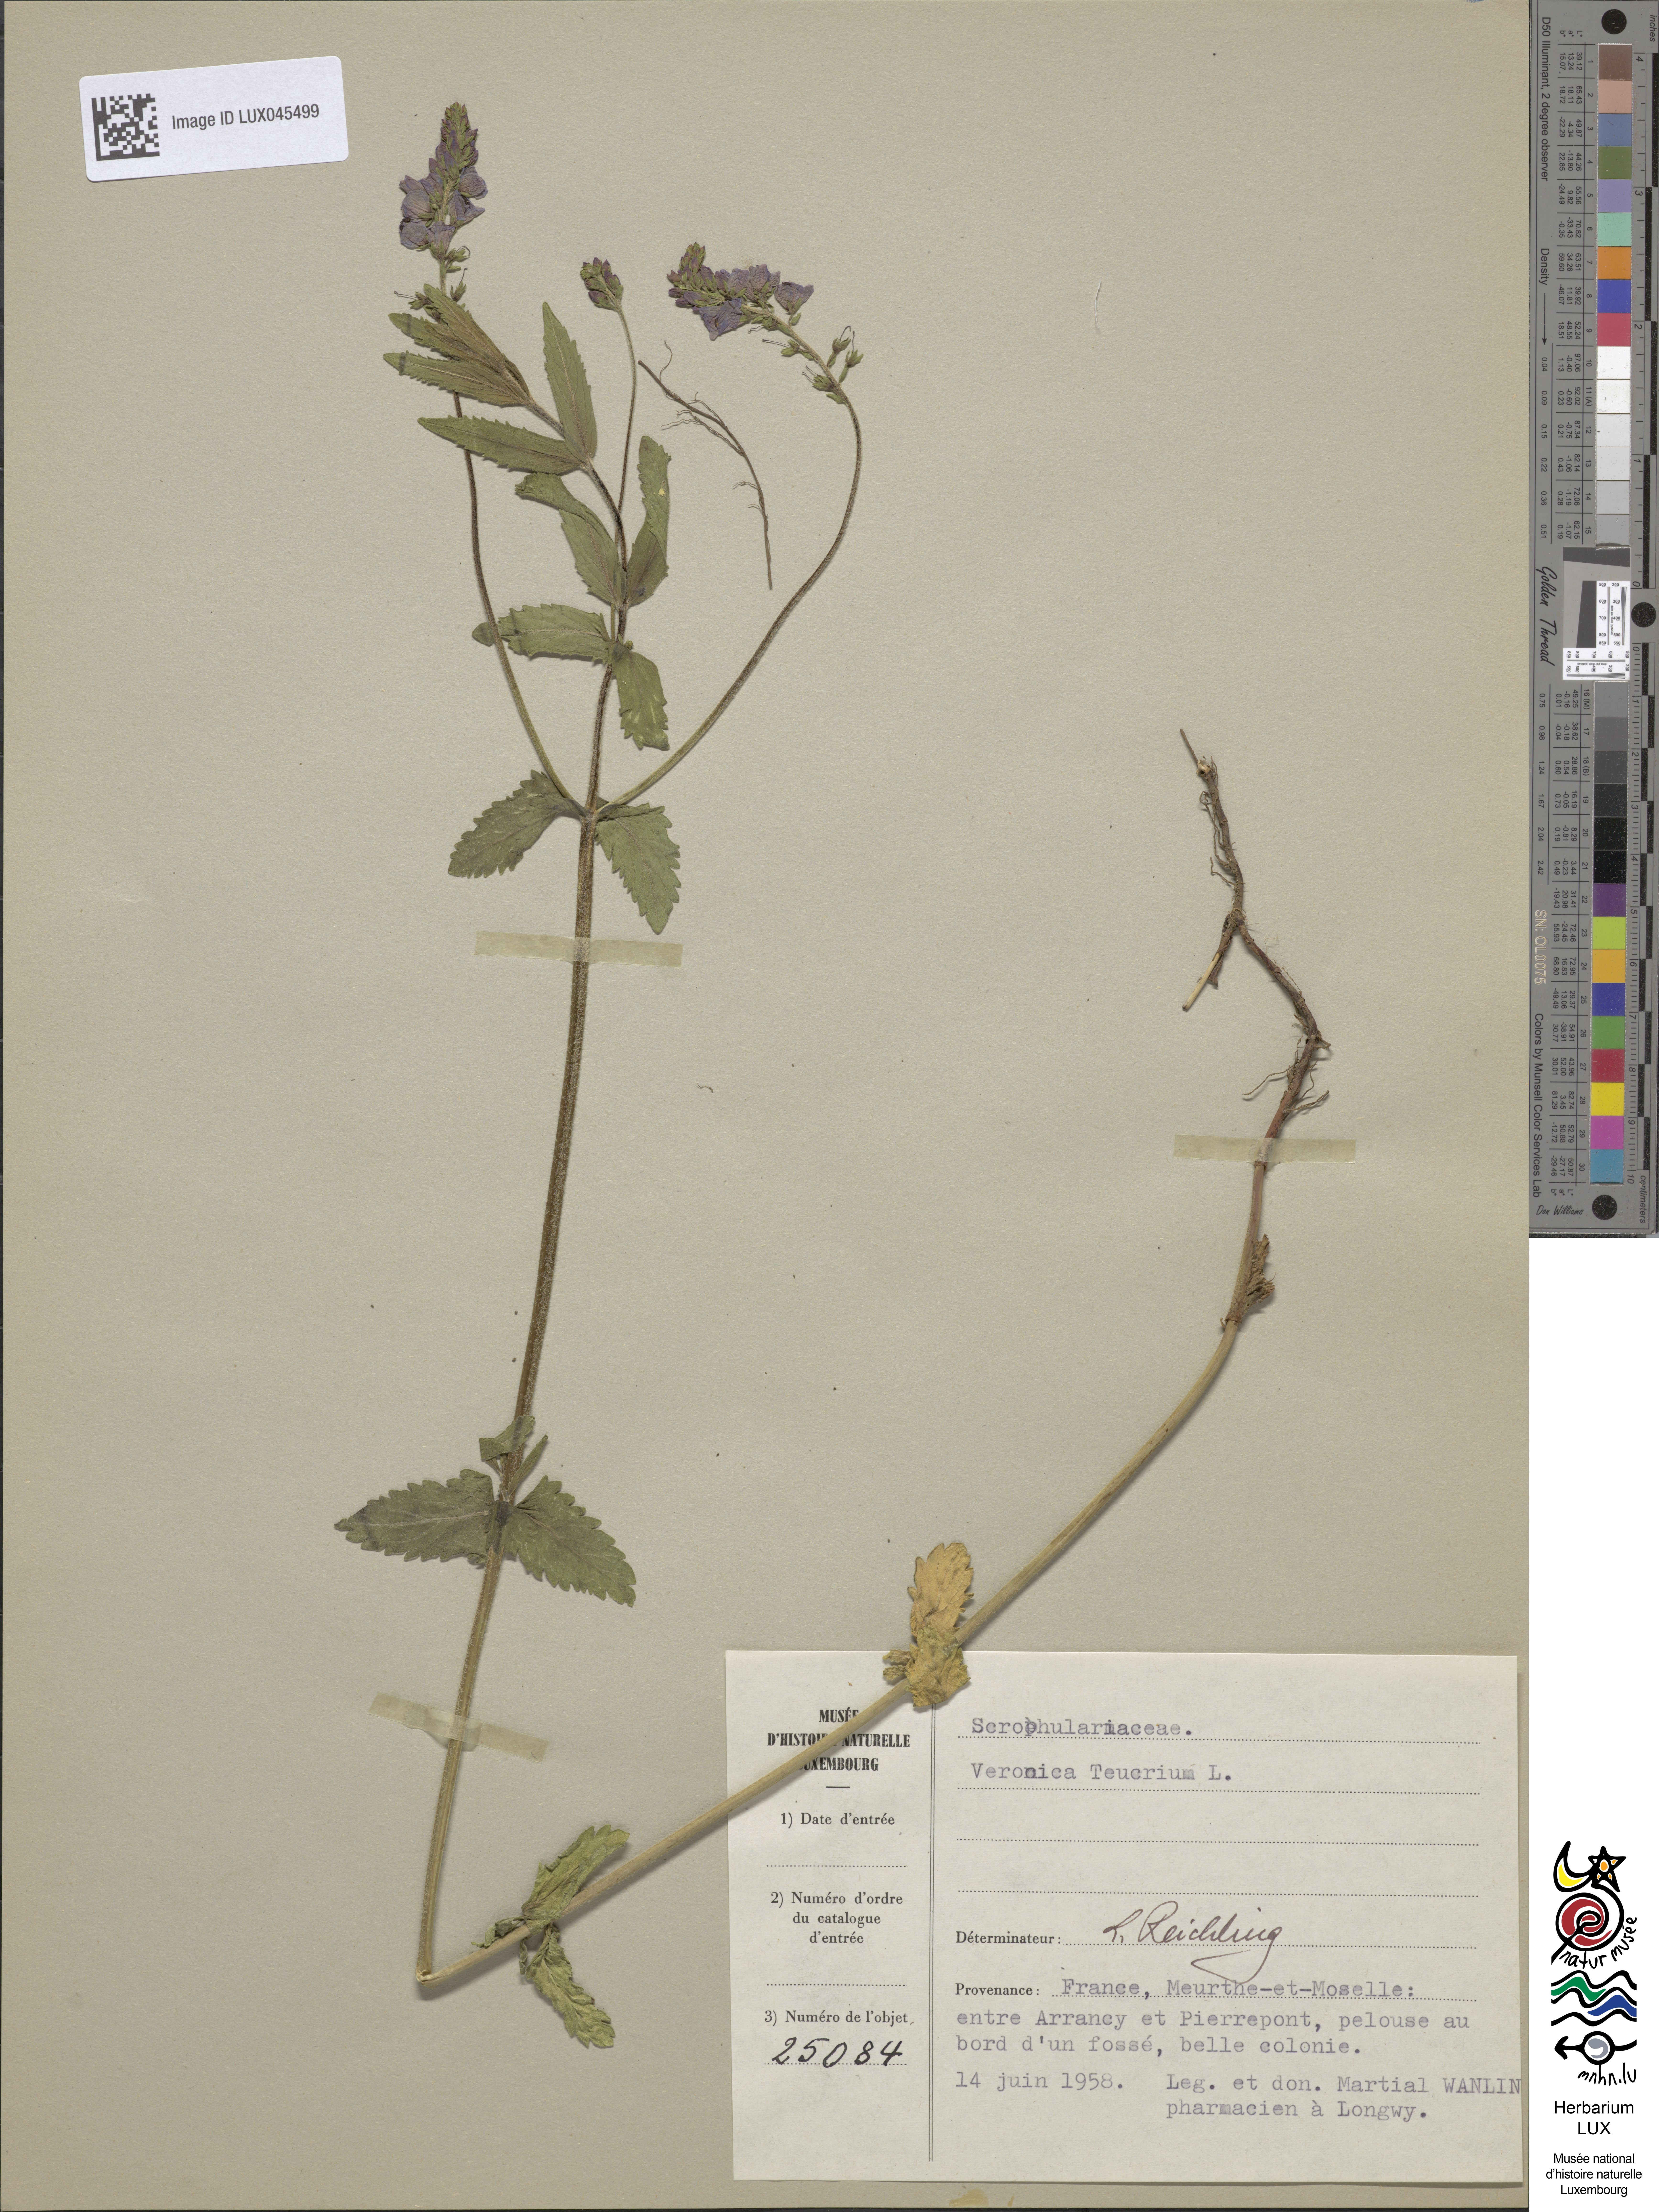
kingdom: Plantae
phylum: Tracheophyta
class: Magnoliopsida
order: Lamiales
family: Plantaginaceae
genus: Veronica
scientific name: Veronica teucrium
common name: Large speedwell
